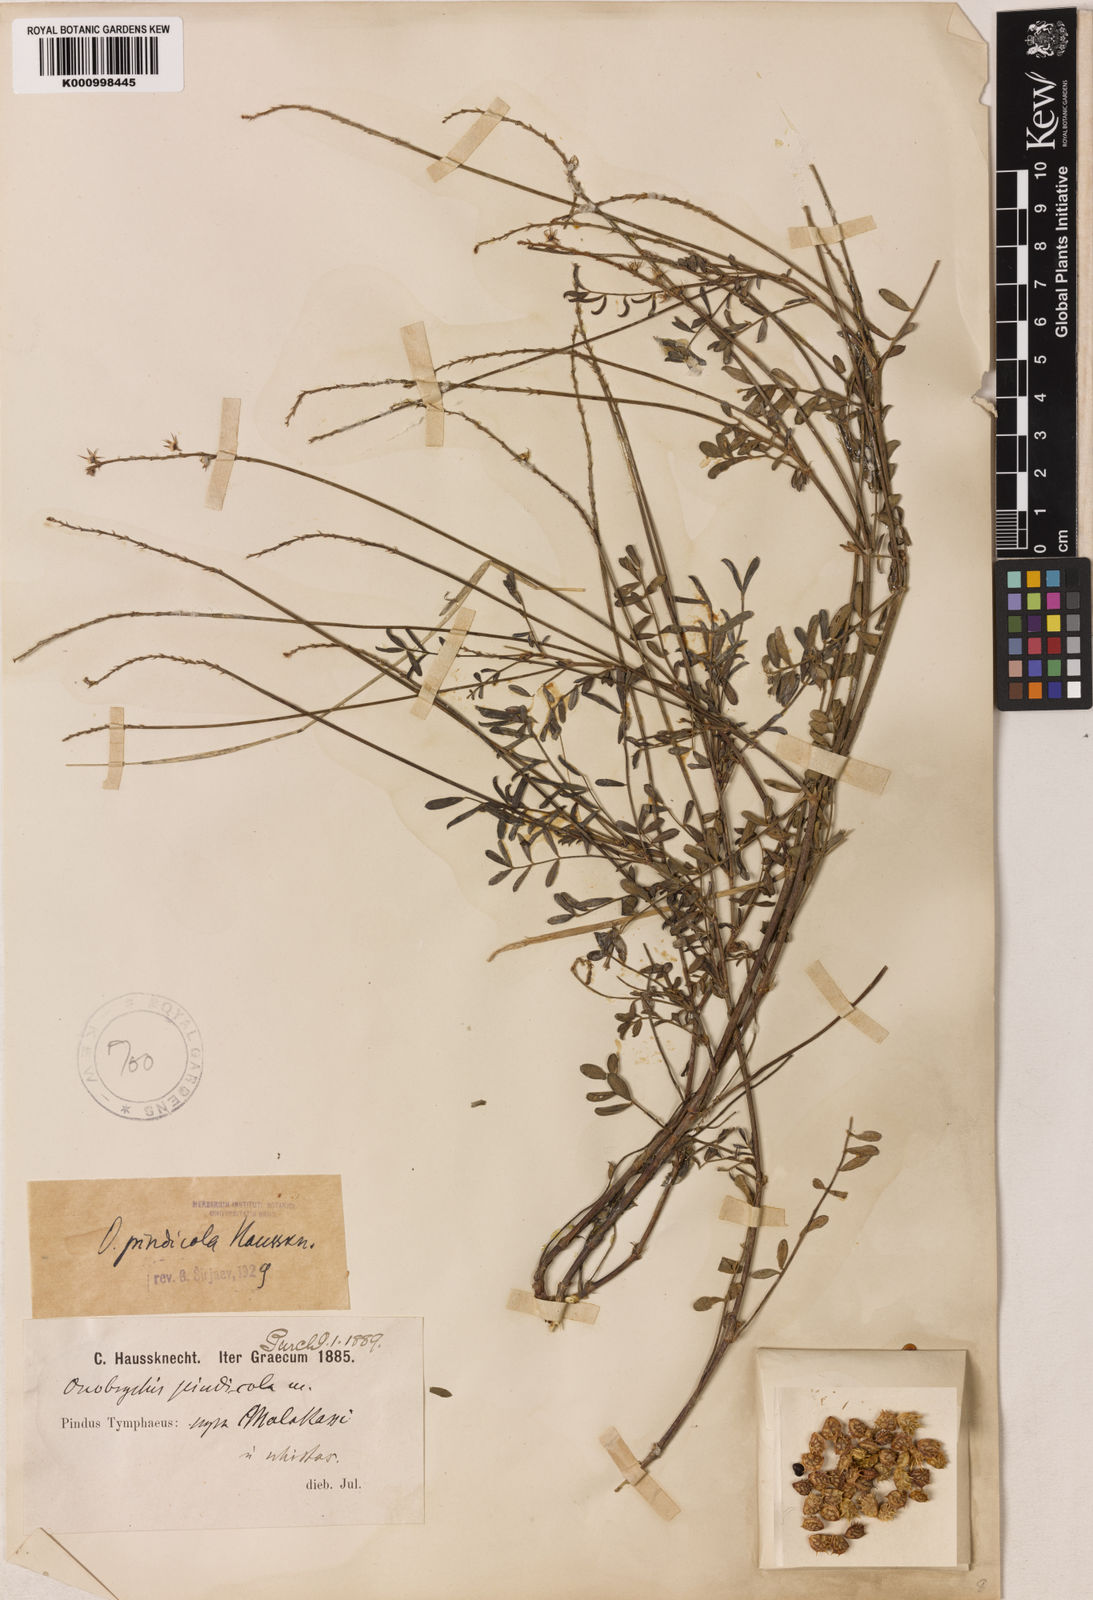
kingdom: Plantae
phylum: Tracheophyta
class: Magnoliopsida
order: Fabales
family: Fabaceae
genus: Onobrychis
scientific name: Onobrychis pindicola
